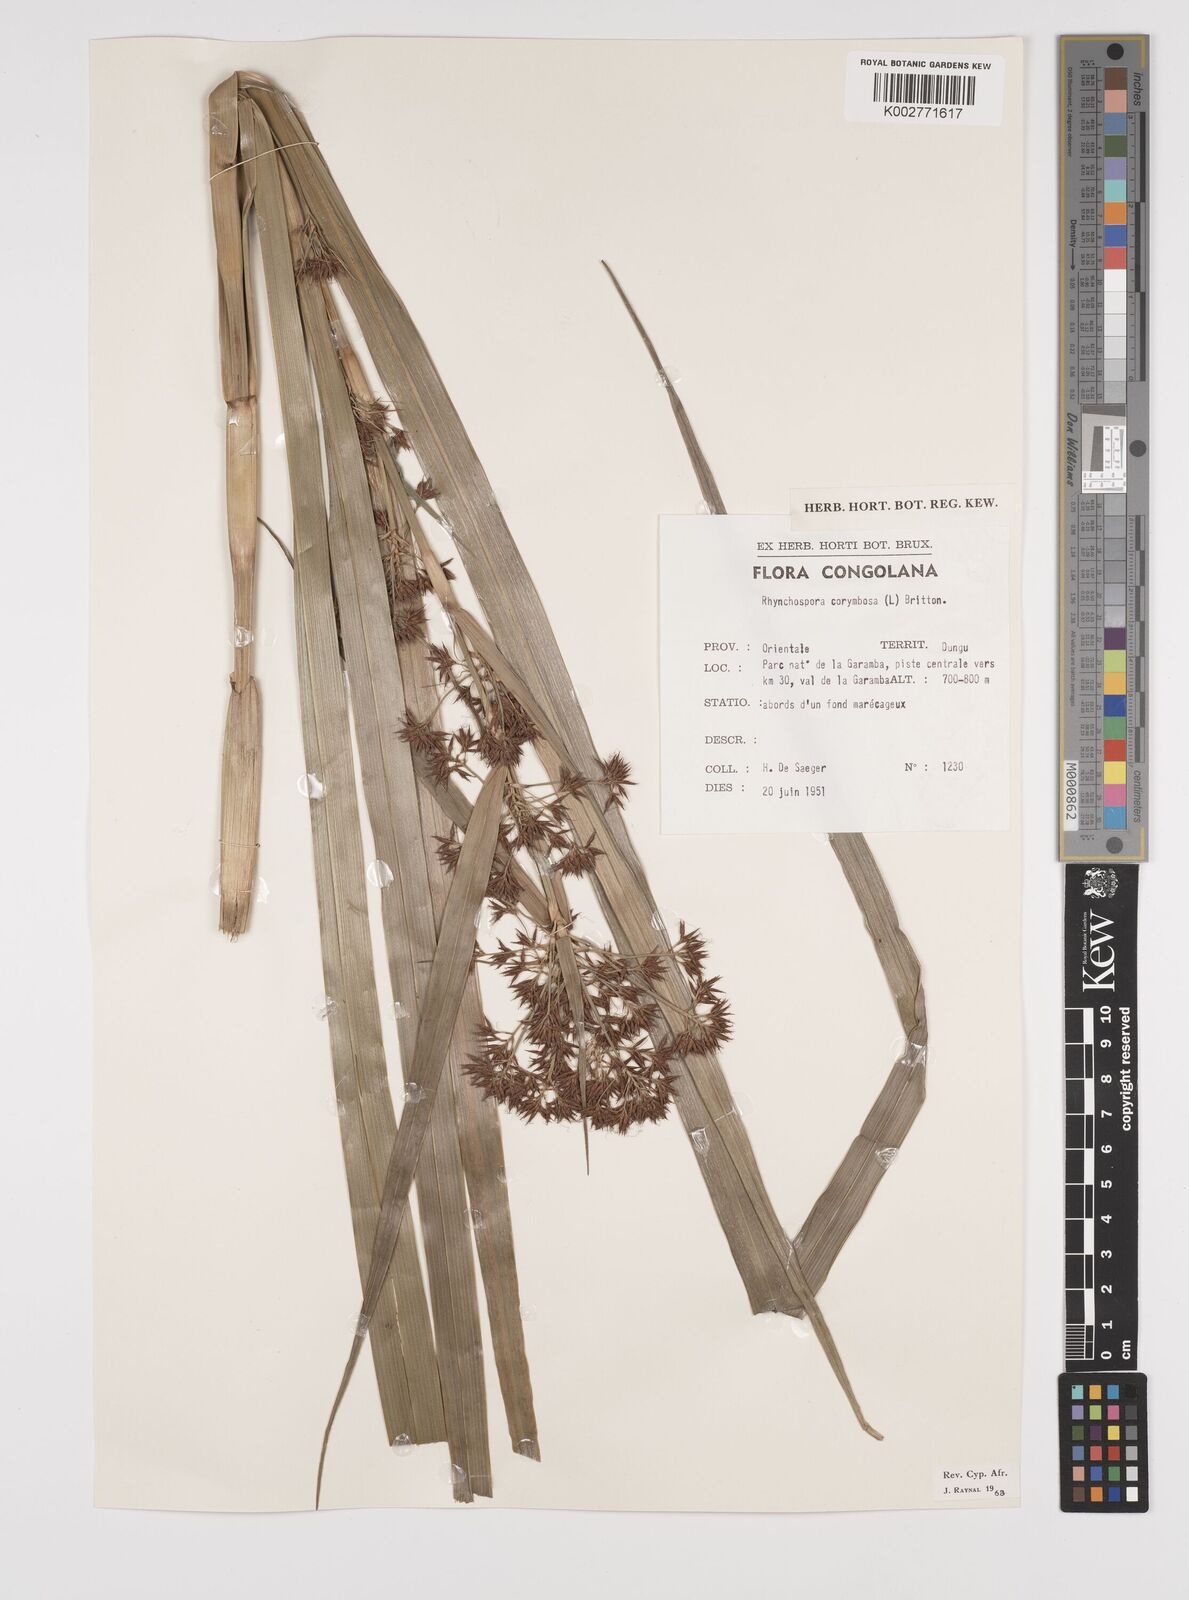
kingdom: Plantae
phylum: Tracheophyta
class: Liliopsida
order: Poales
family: Cyperaceae
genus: Rhynchospora
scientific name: Rhynchospora corymbosa
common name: Golden beak sedge
